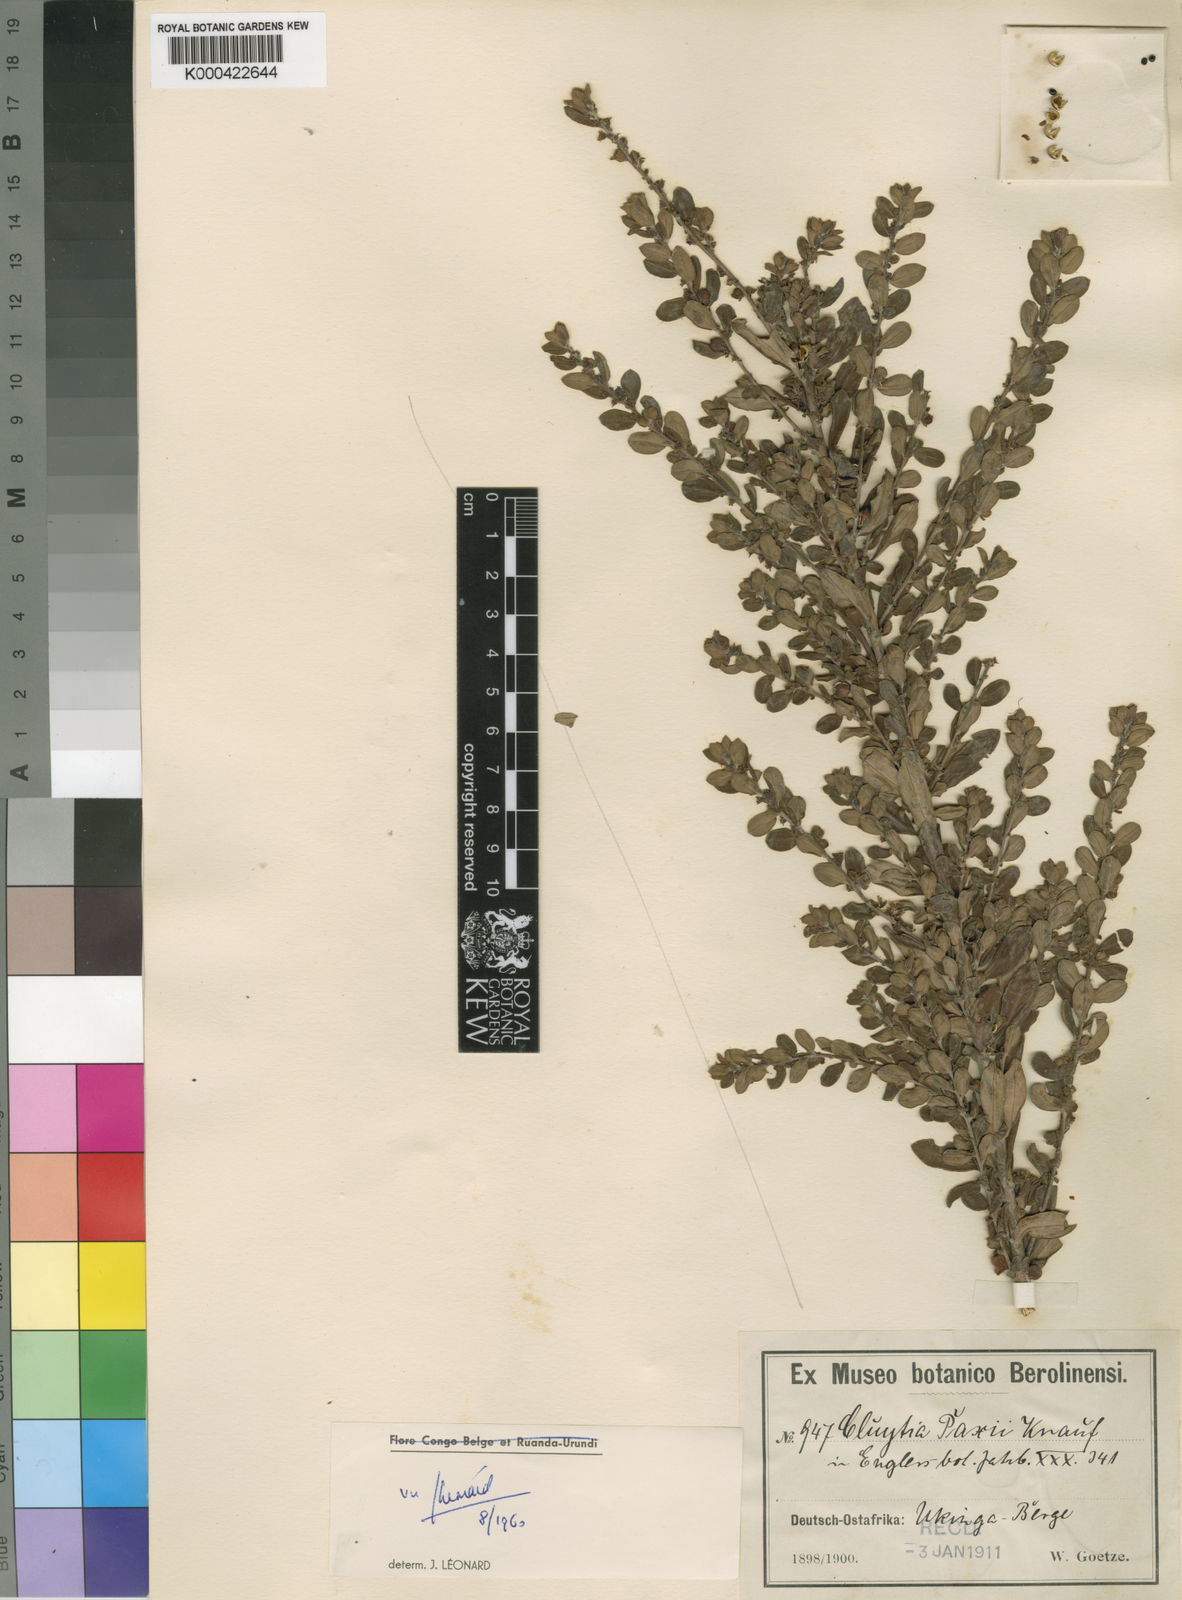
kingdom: Plantae
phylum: Tracheophyta
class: Magnoliopsida
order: Malpighiales
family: Peraceae
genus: Clutia
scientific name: Clutia paxii
